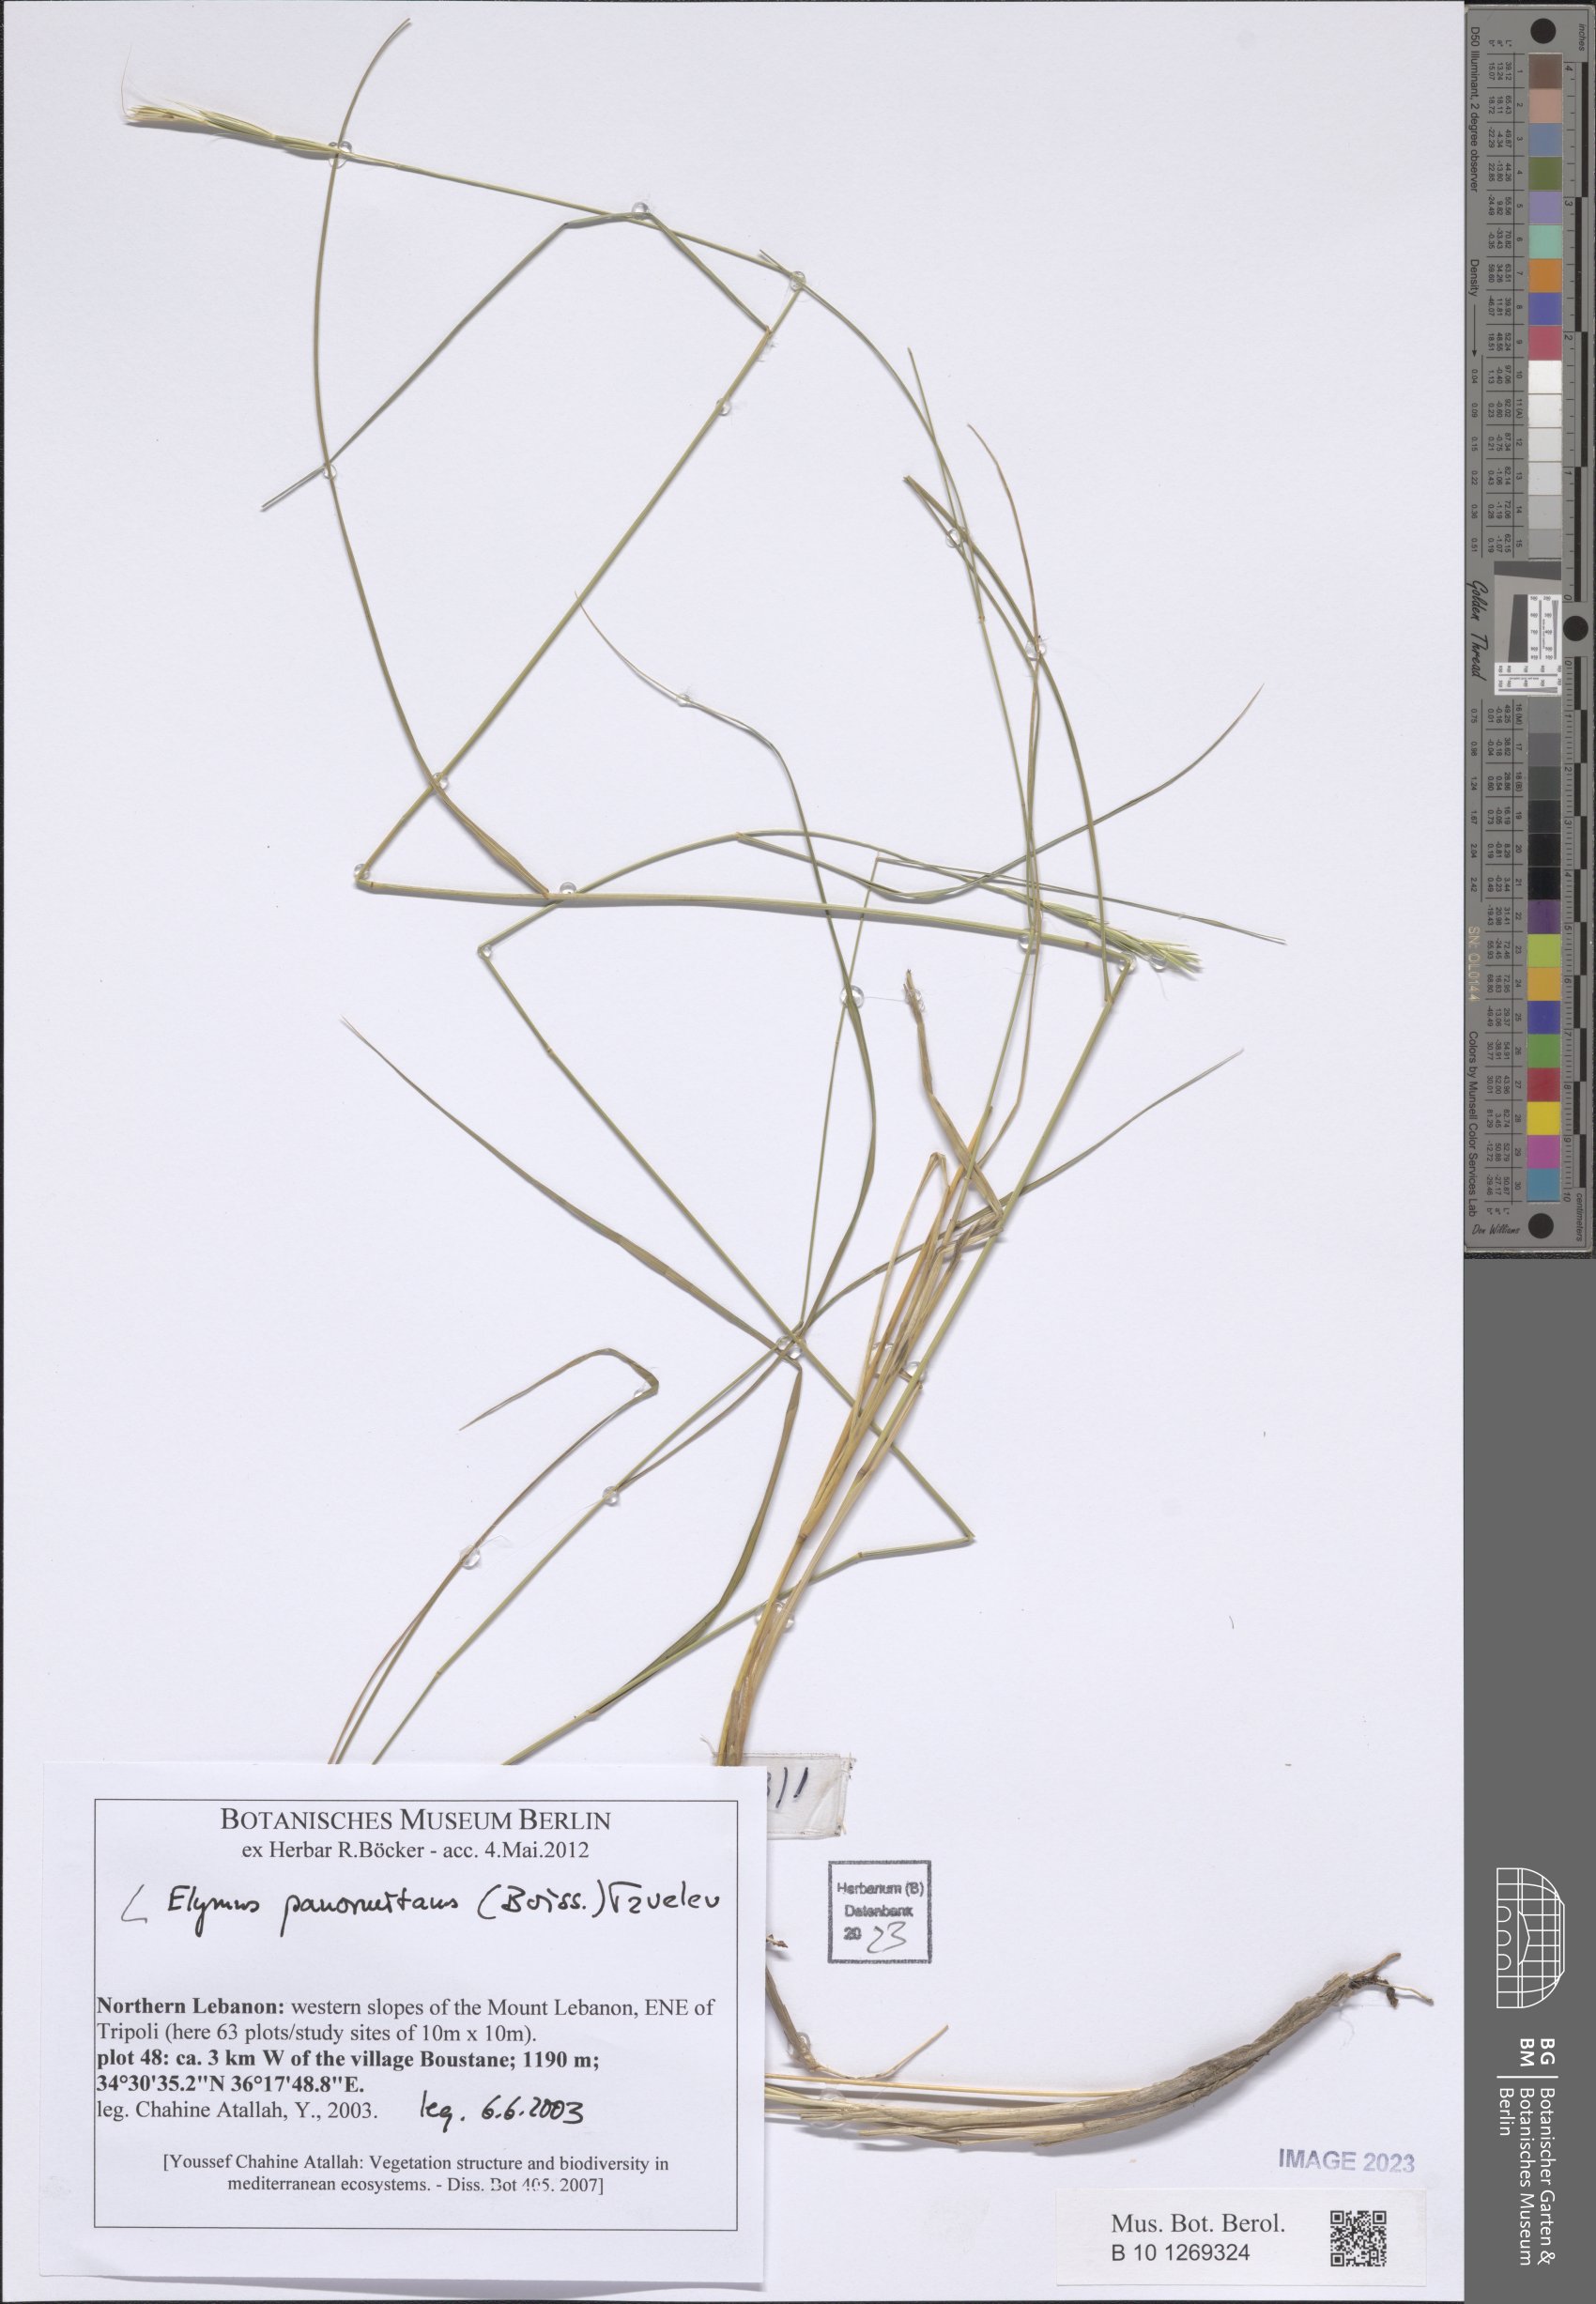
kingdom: Plantae
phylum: Tracheophyta
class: Liliopsida
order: Poales
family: Poaceae
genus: Elymus
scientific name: Elymus panormitanus
